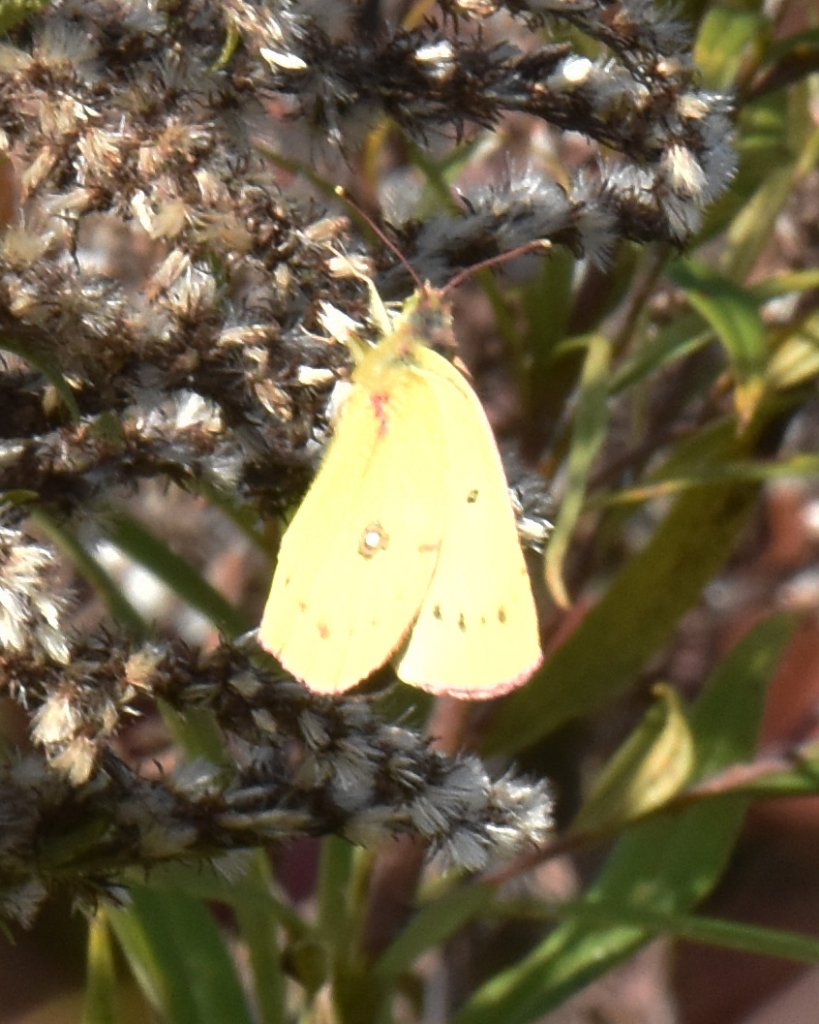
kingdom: Animalia
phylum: Arthropoda
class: Insecta
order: Lepidoptera
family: Pieridae
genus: Colias
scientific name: Colias philodice
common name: Clouded Sulphur
